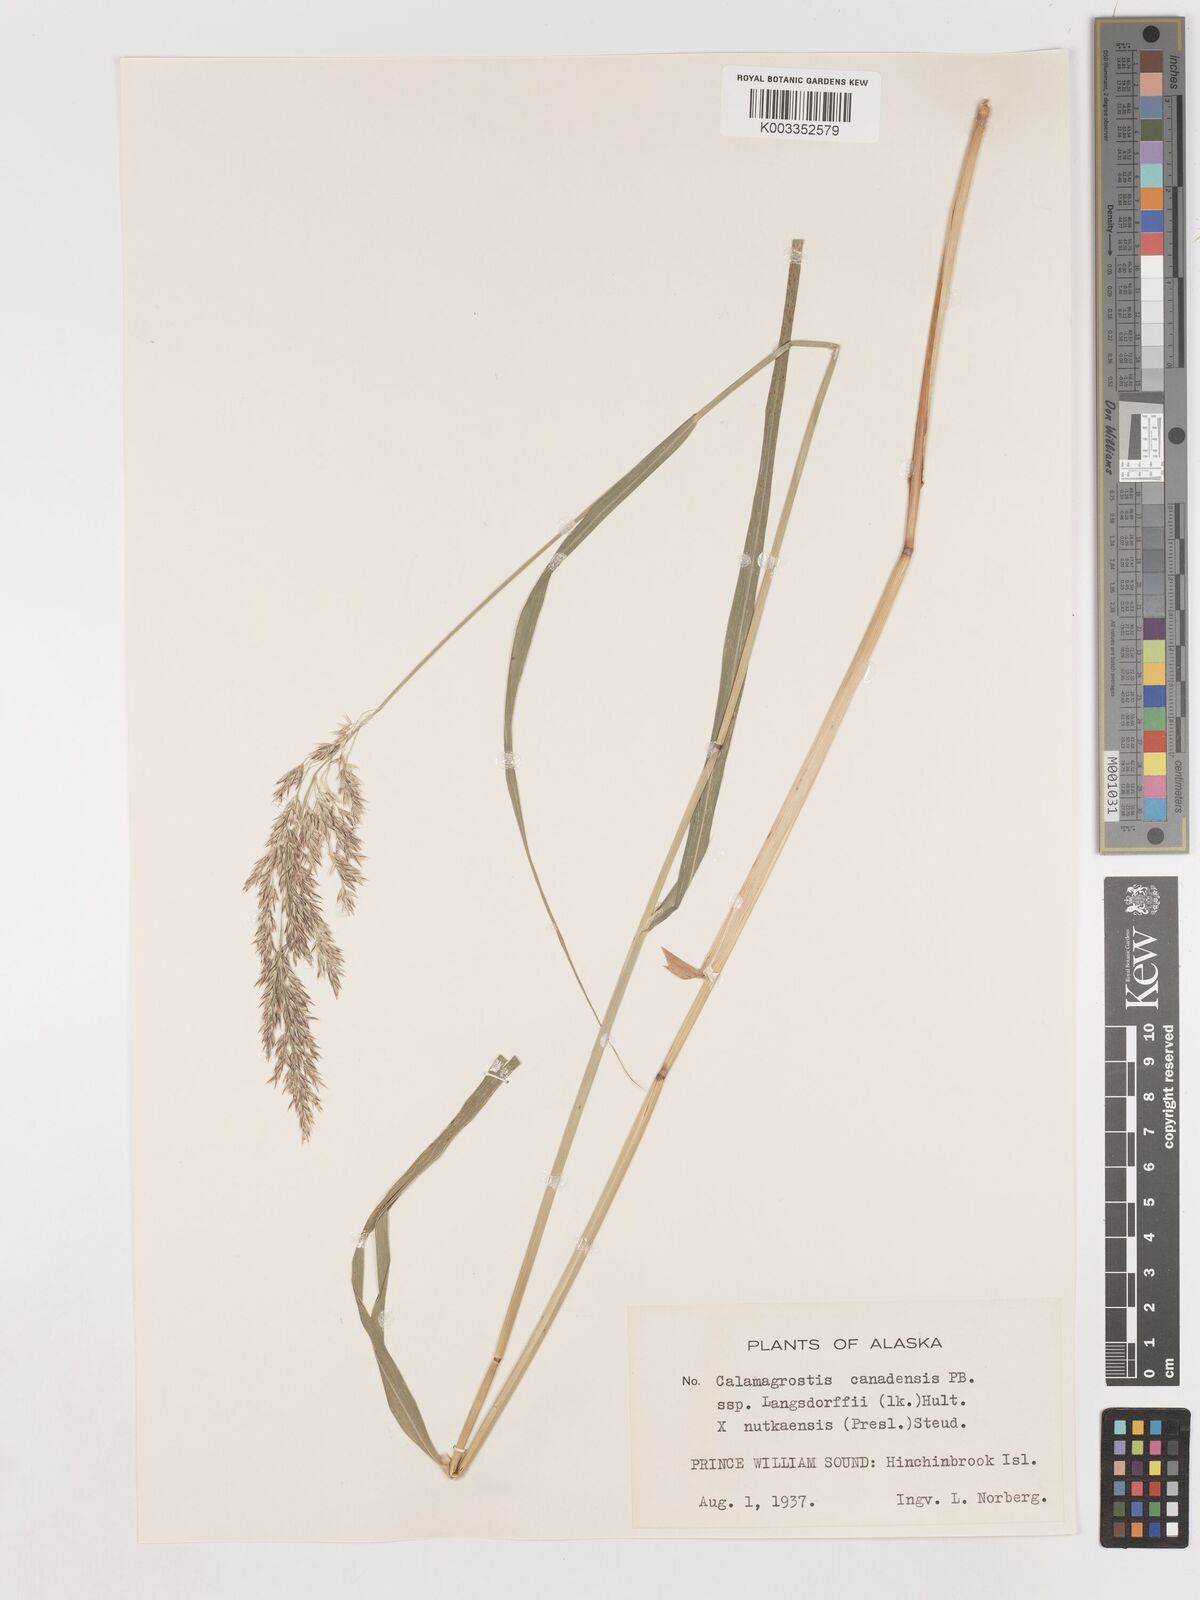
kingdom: Plantae
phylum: Tracheophyta
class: Liliopsida
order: Poales
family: Poaceae
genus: Calamagrostis
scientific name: Calamagrostis canadensis
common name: Canada bluejoint
